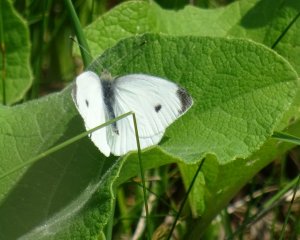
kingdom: Animalia
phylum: Arthropoda
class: Insecta
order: Lepidoptera
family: Pieridae
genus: Pieris
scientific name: Pieris rapae
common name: Cabbage White
